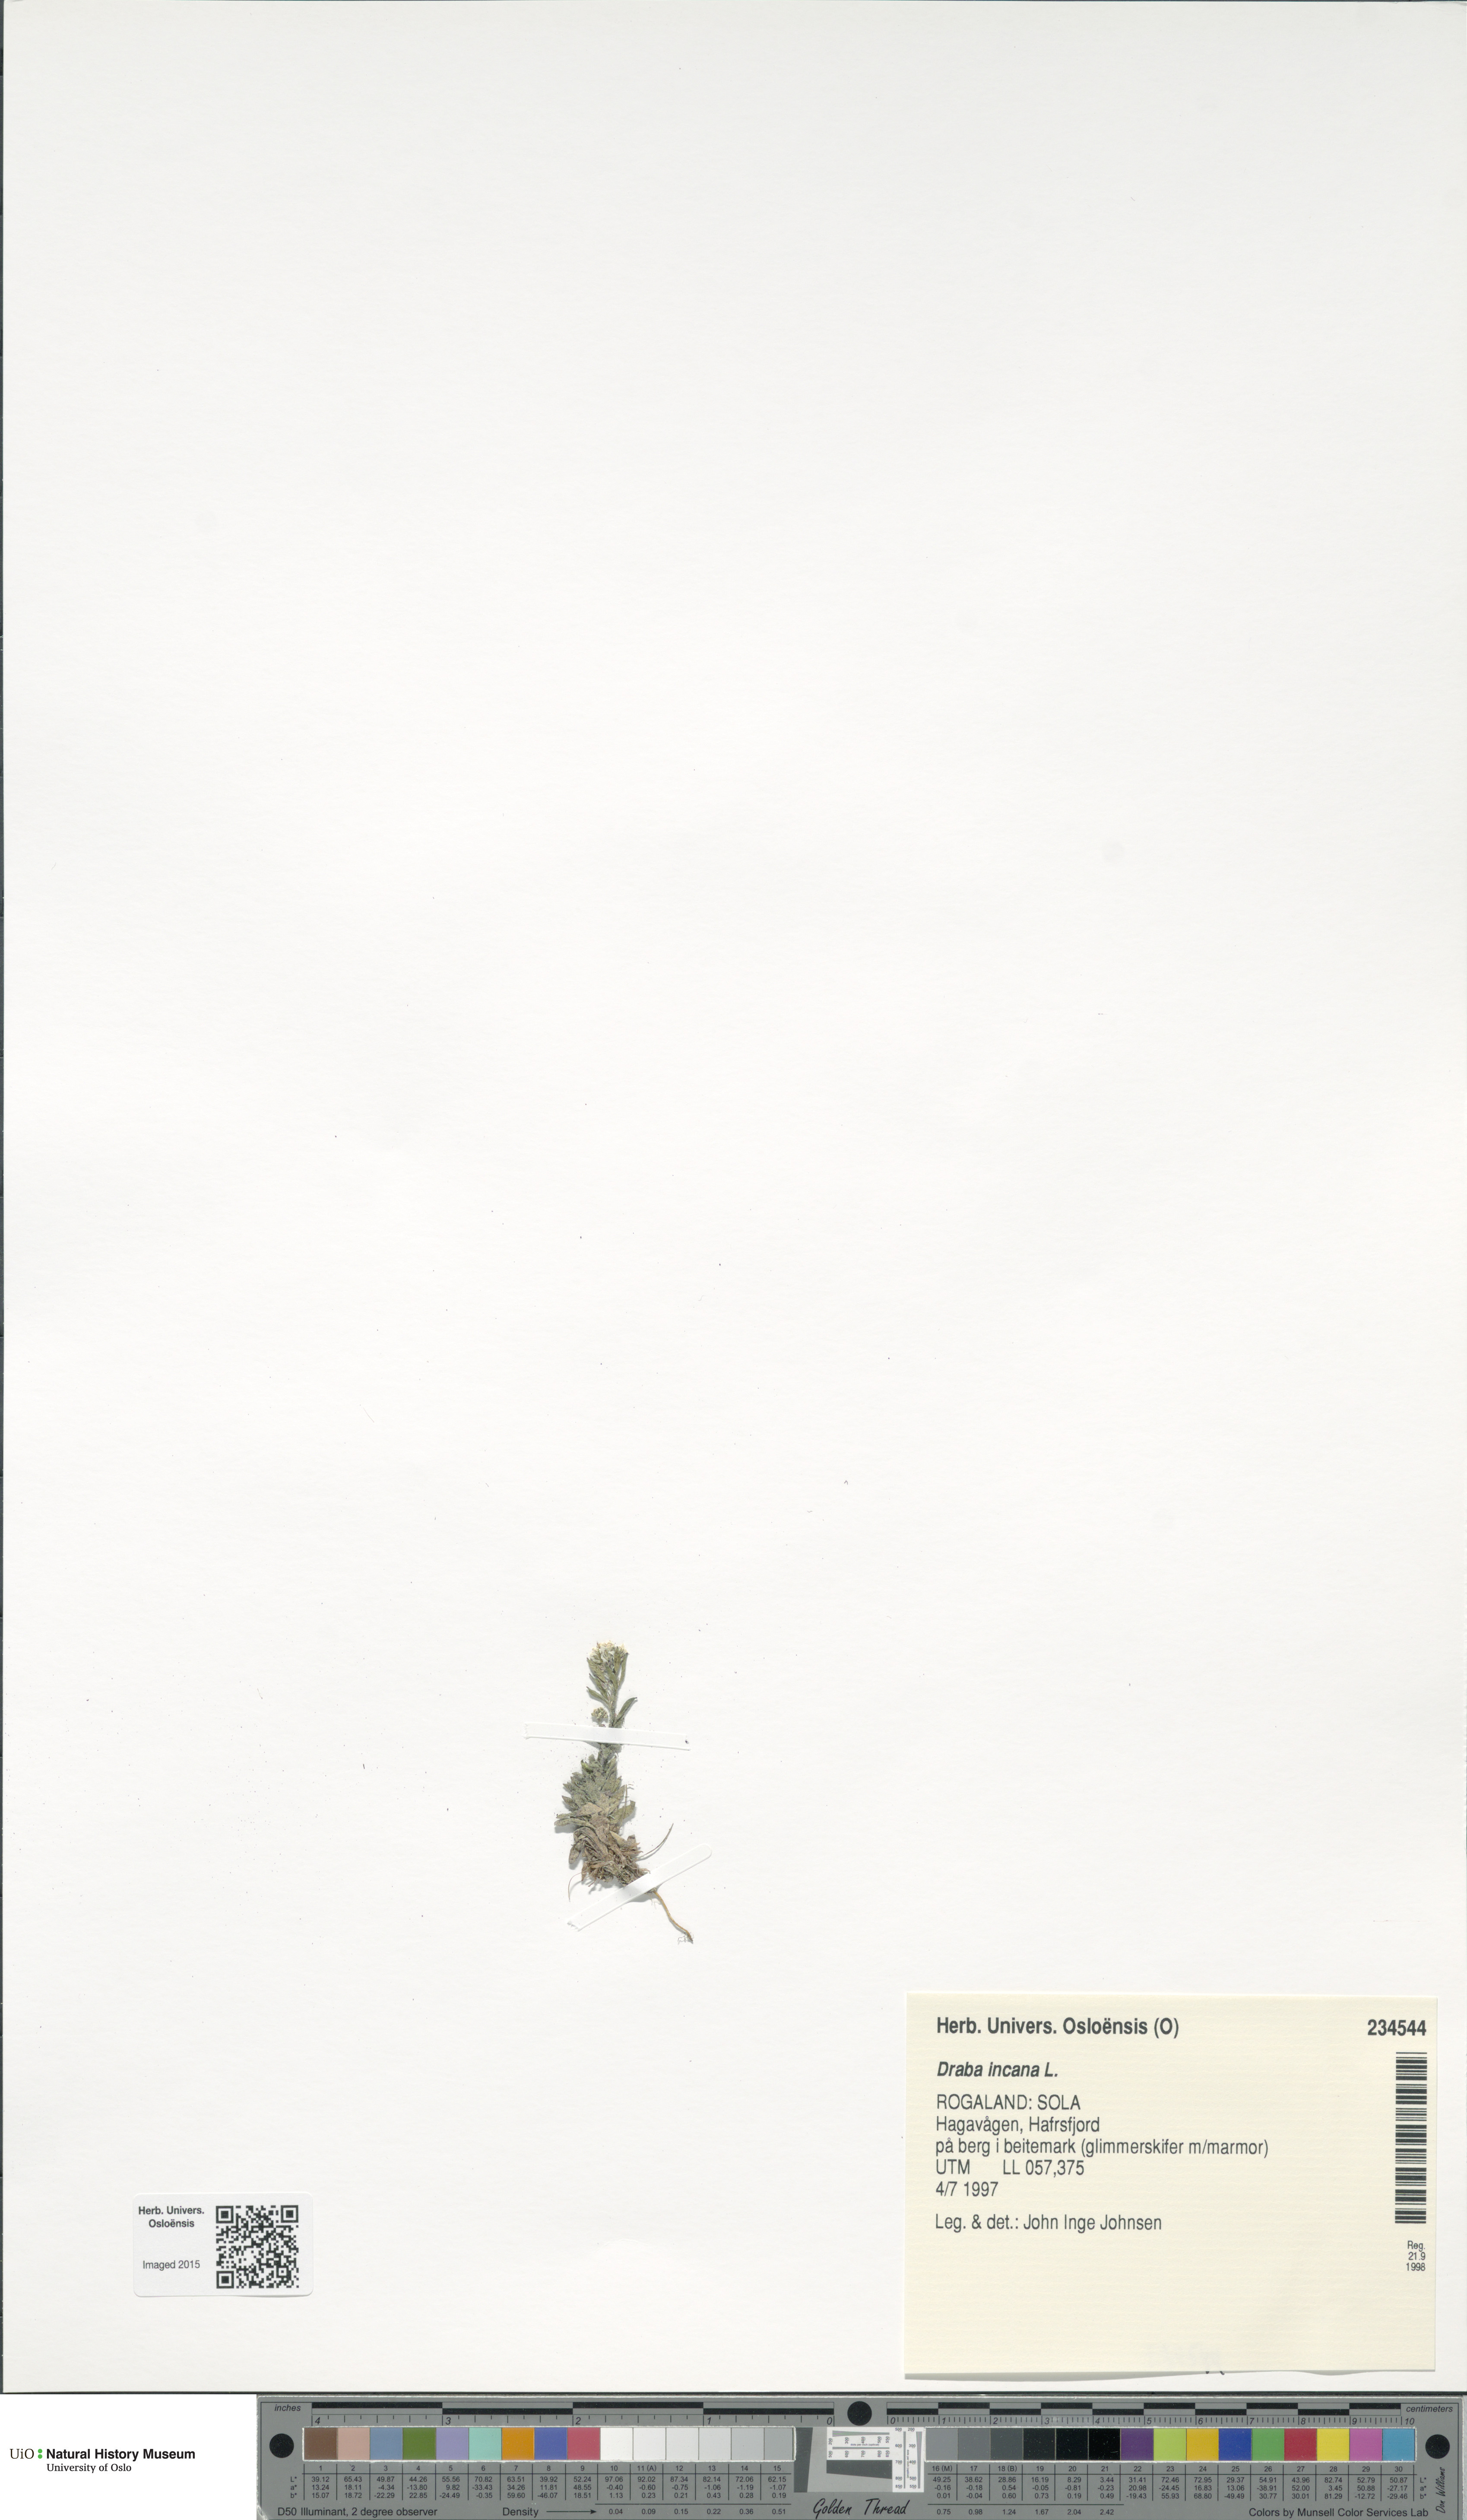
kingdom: Plantae
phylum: Tracheophyta
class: Magnoliopsida
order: Brassicales
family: Brassicaceae
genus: Draba
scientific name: Draba incana
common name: Hoary whitlow-grass
